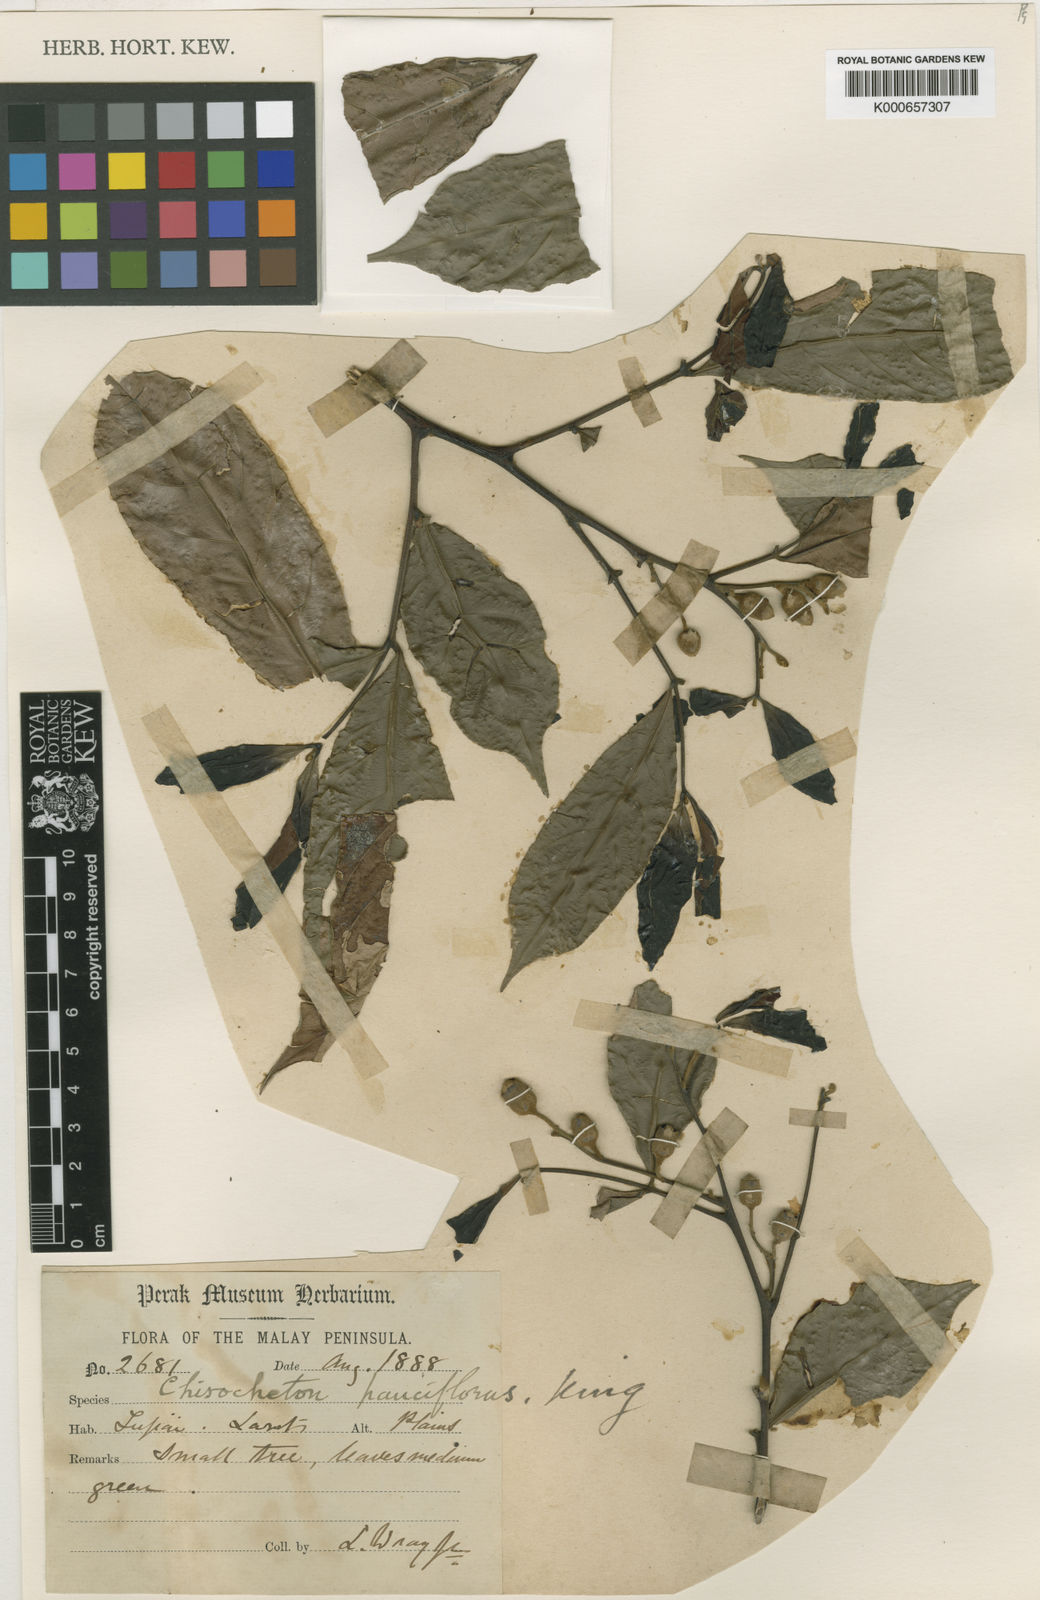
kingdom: Plantae
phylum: Tracheophyta
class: Magnoliopsida
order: Sapindales
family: Meliaceae
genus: Chisocheton
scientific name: Chisocheton pauciflorus
